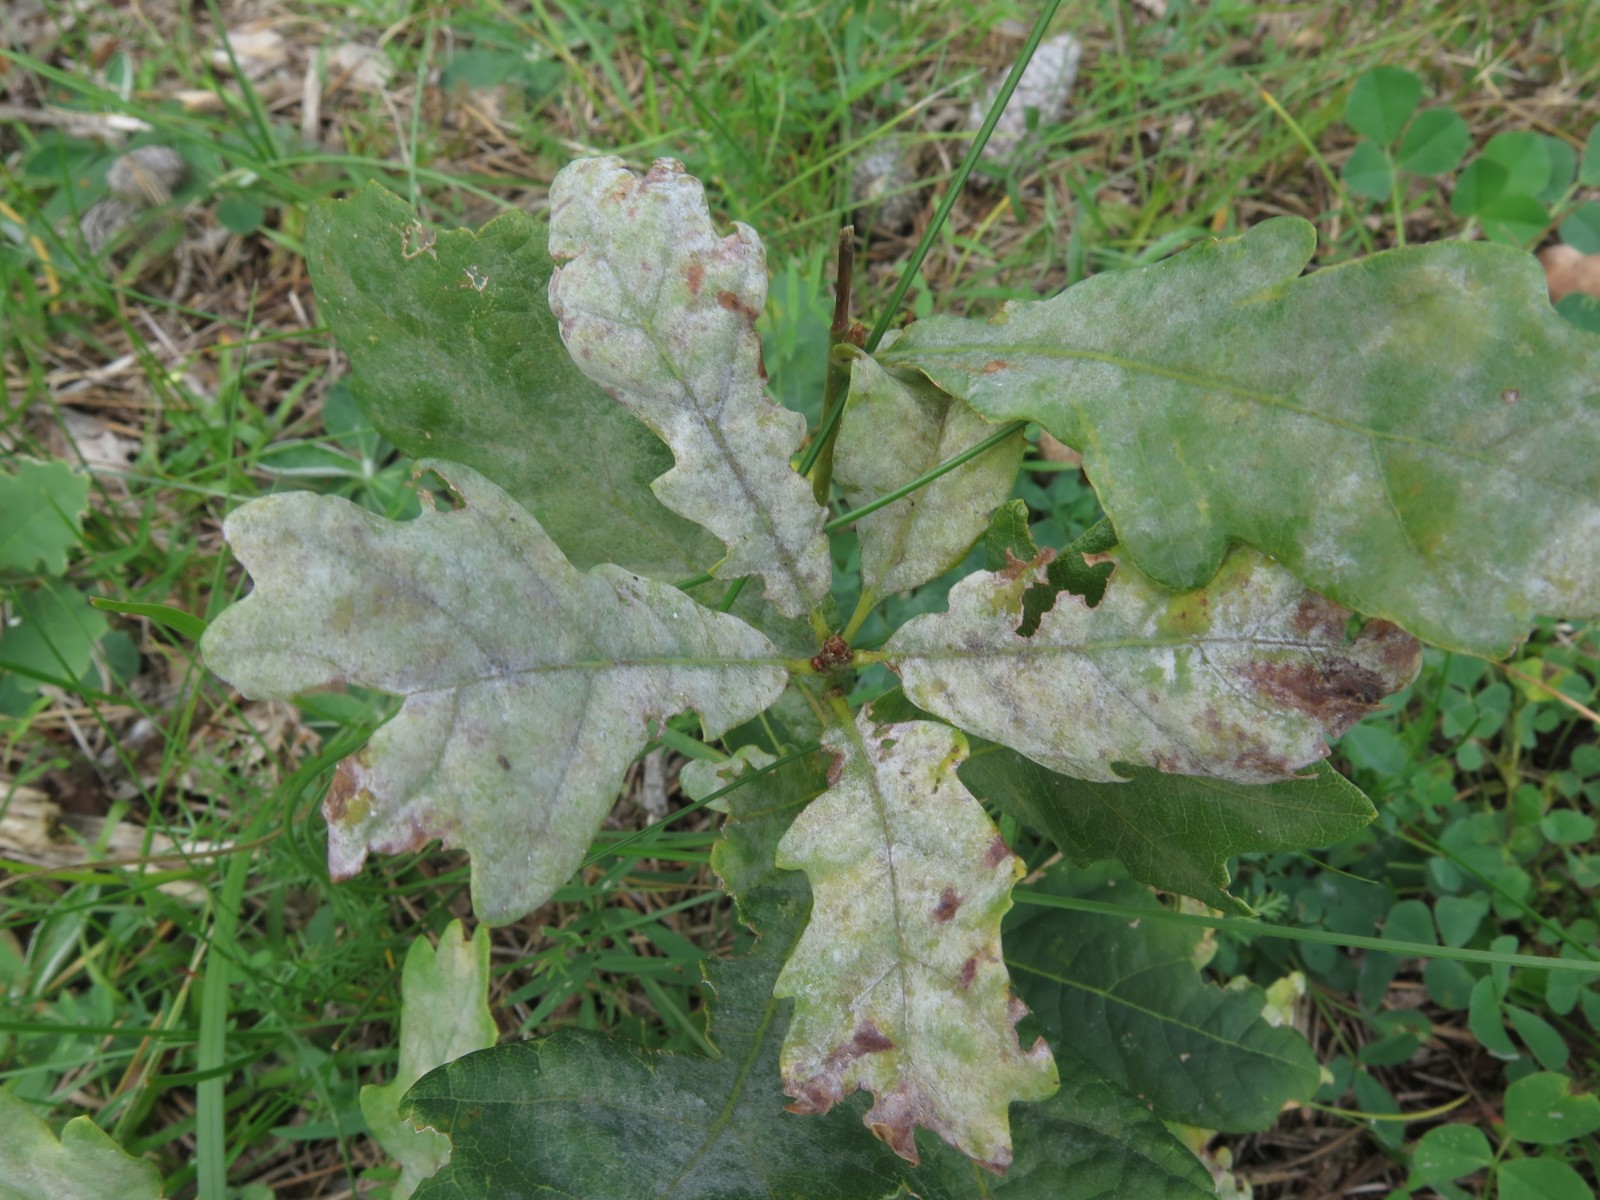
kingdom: Fungi
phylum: Ascomycota
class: Leotiomycetes
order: Helotiales
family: Erysiphaceae
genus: Erysiphe
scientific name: Erysiphe alphitoides
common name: ege-meldug
